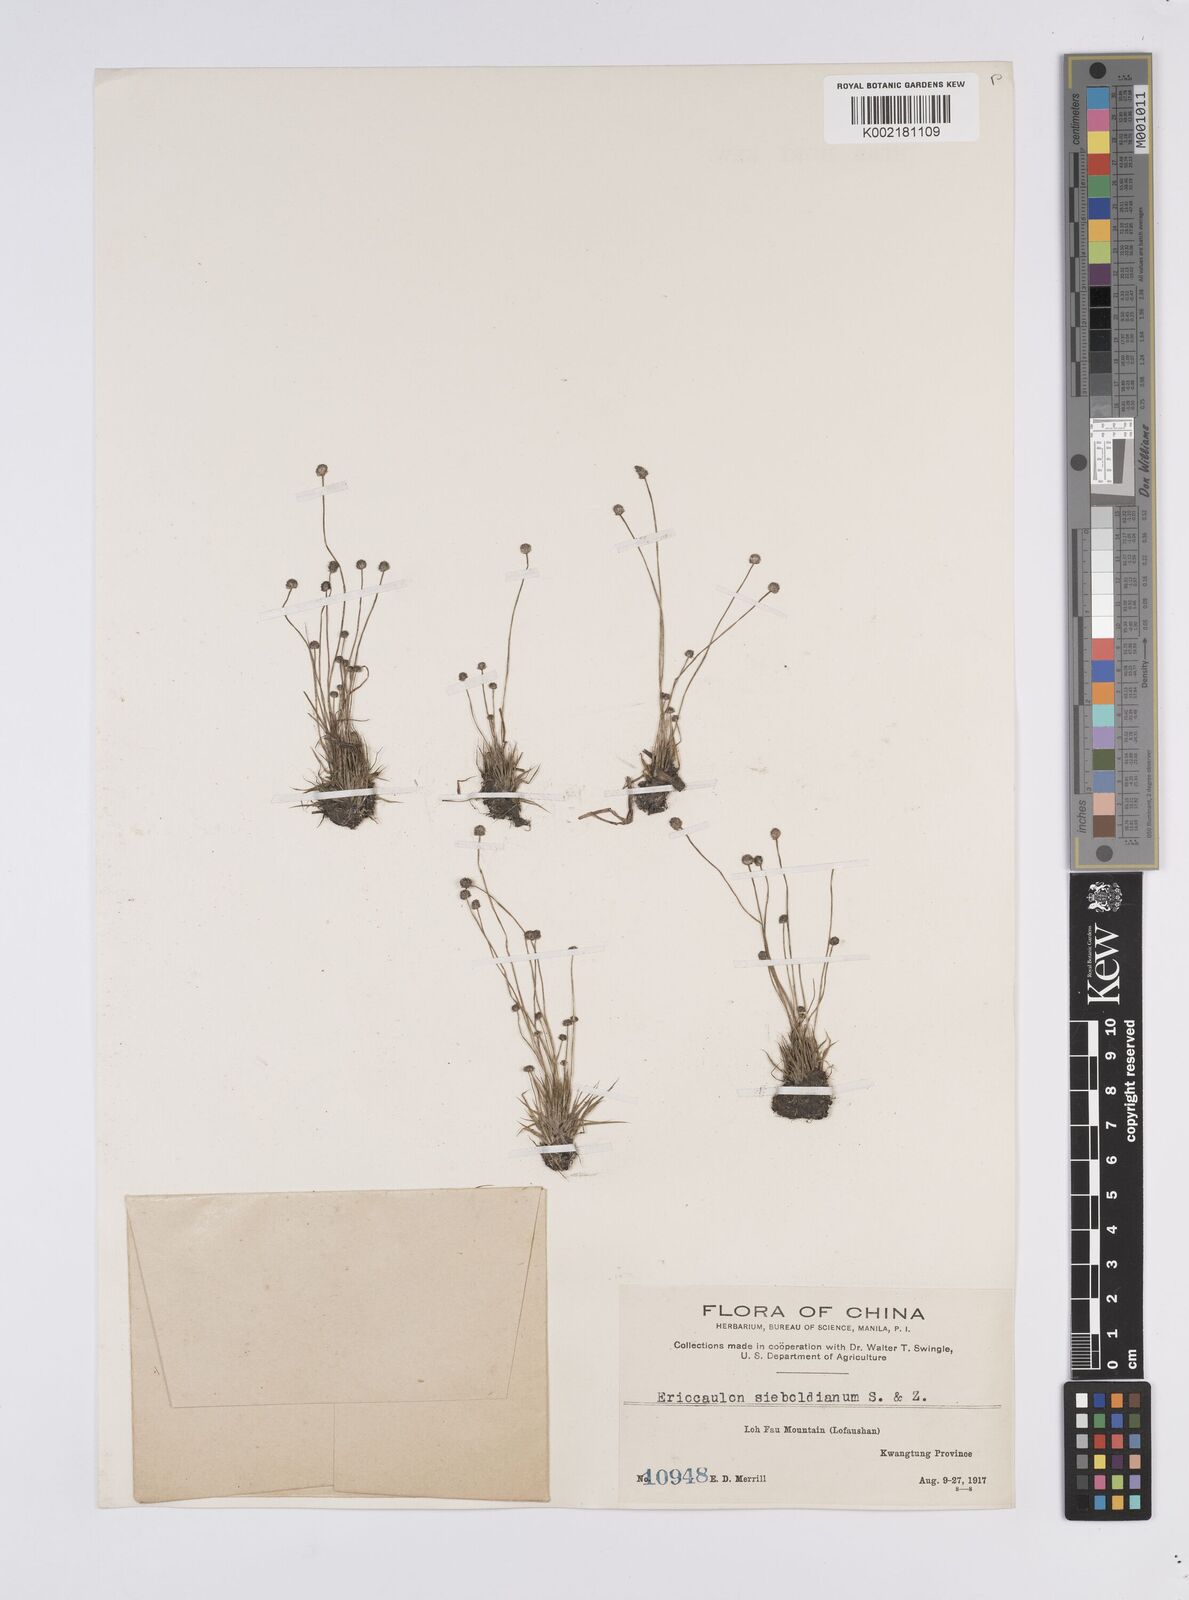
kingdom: Plantae
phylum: Tracheophyta
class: Liliopsida
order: Poales
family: Eriocaulaceae
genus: Eriocaulon
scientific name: Eriocaulon cinereum
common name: Ashy pipewort
